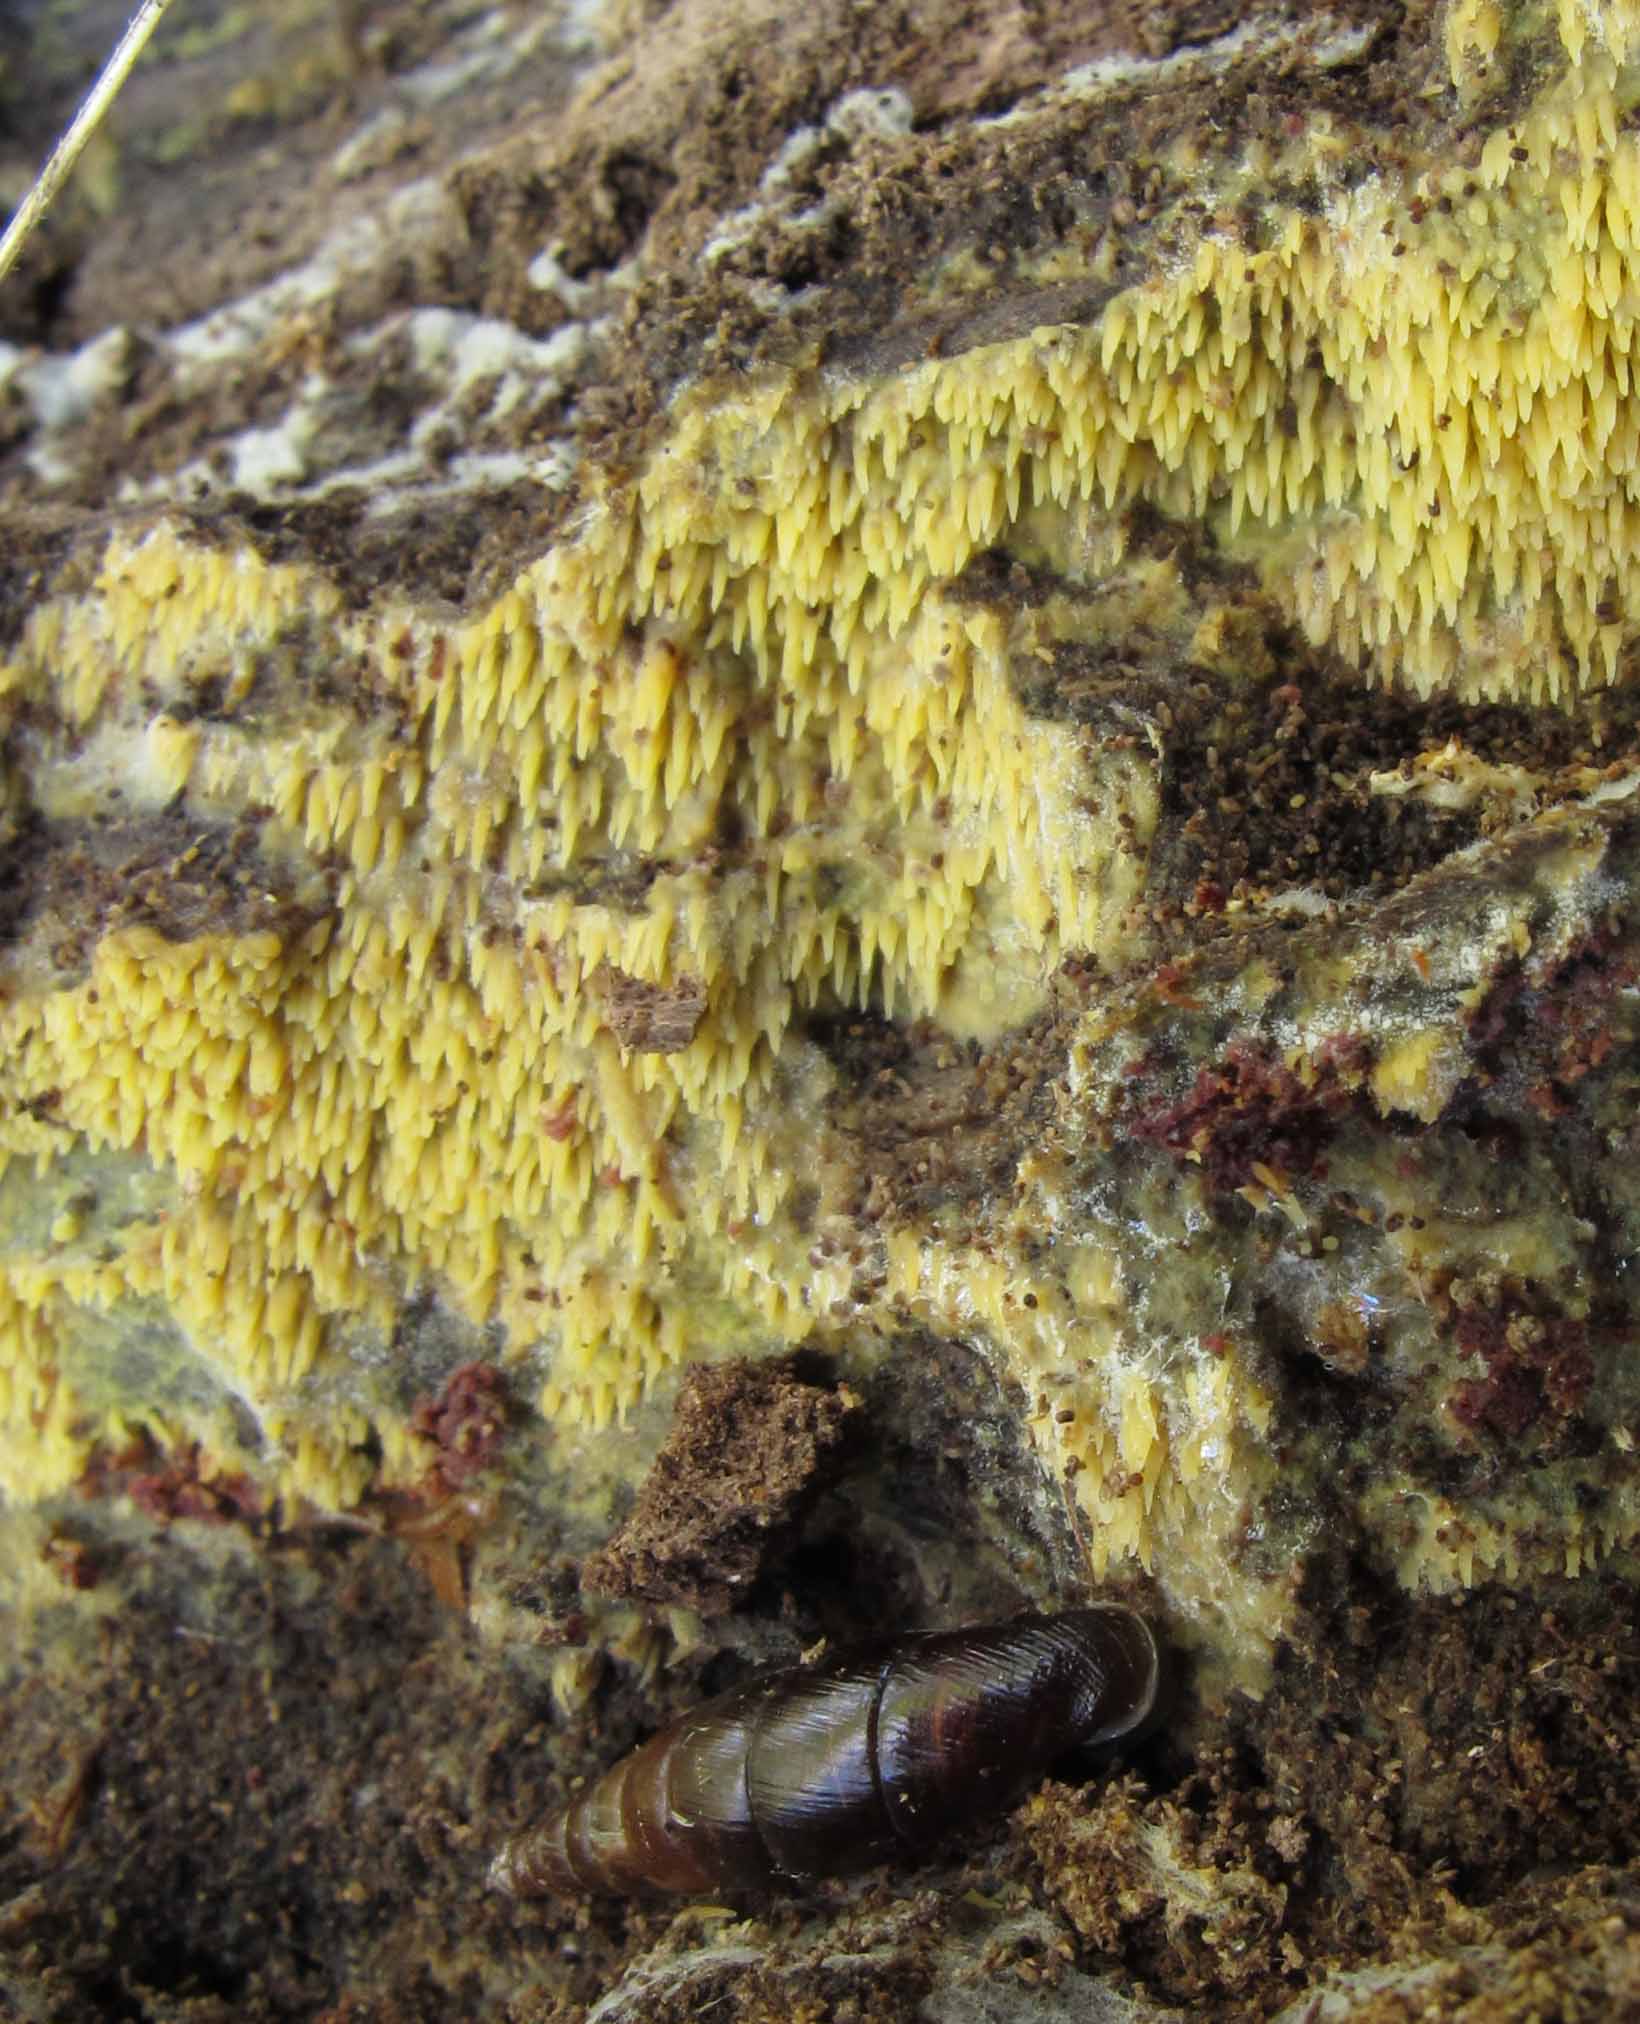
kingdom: Fungi
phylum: Basidiomycota
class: Agaricomycetes
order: Polyporales
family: Meruliaceae
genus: Mycoacia
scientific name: Mycoacia uda
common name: citrongul vokspig
